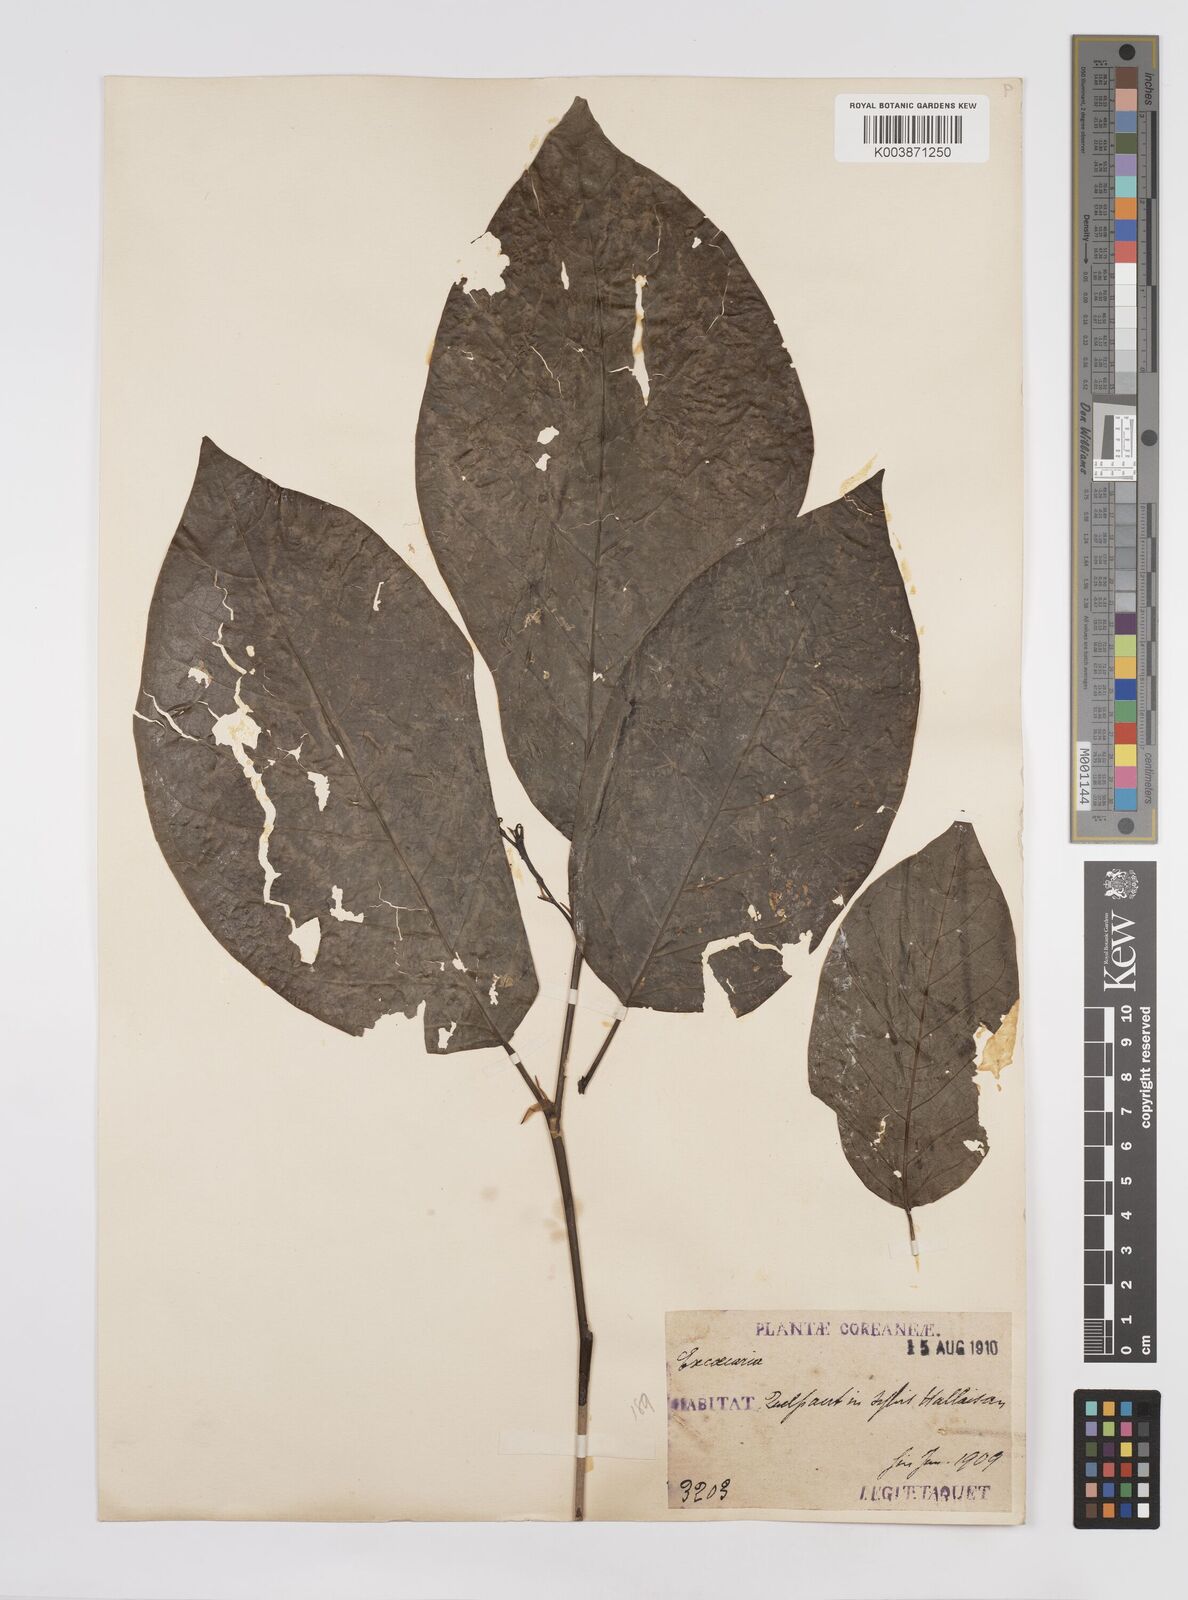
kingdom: Plantae
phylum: Tracheophyta
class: Magnoliopsida
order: Malpighiales
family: Euphorbiaceae
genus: Neoshirakia
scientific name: Neoshirakia japonica
